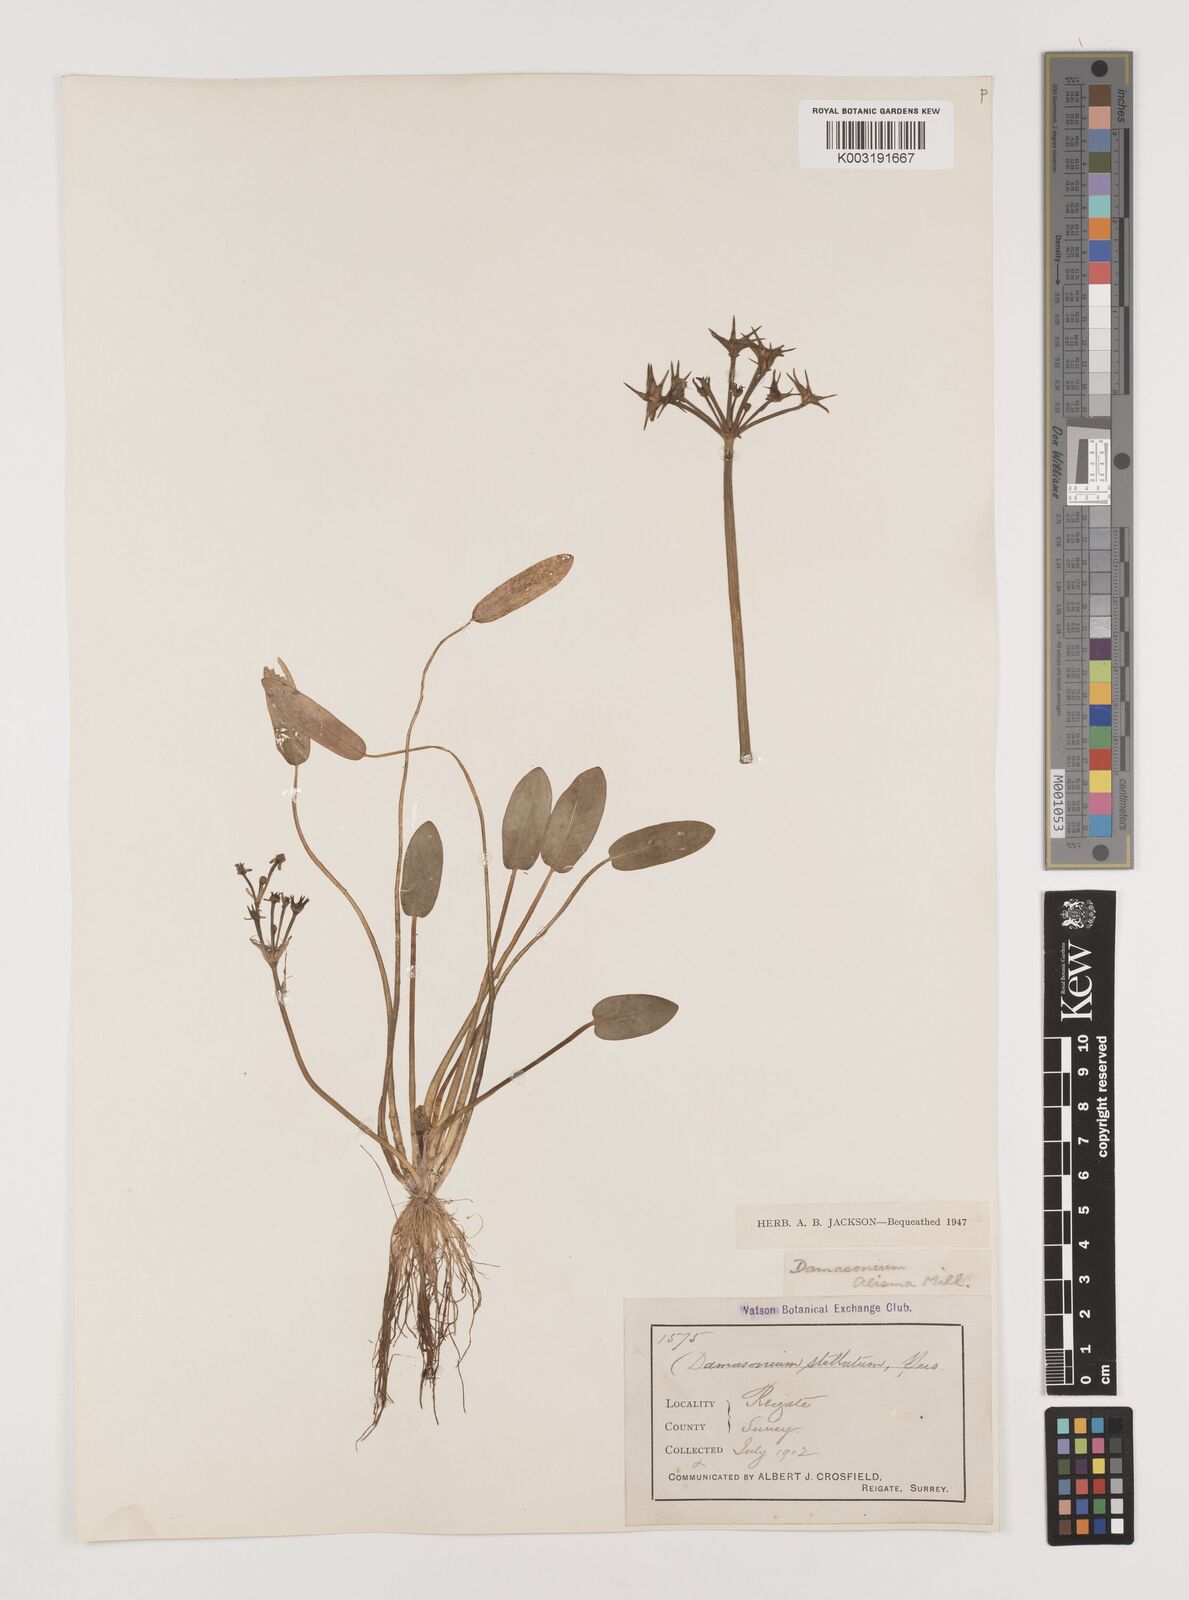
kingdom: Plantae
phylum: Tracheophyta
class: Liliopsida
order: Alismatales
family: Alismataceae
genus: Damasonium
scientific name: Damasonium alisma
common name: Starfruit
